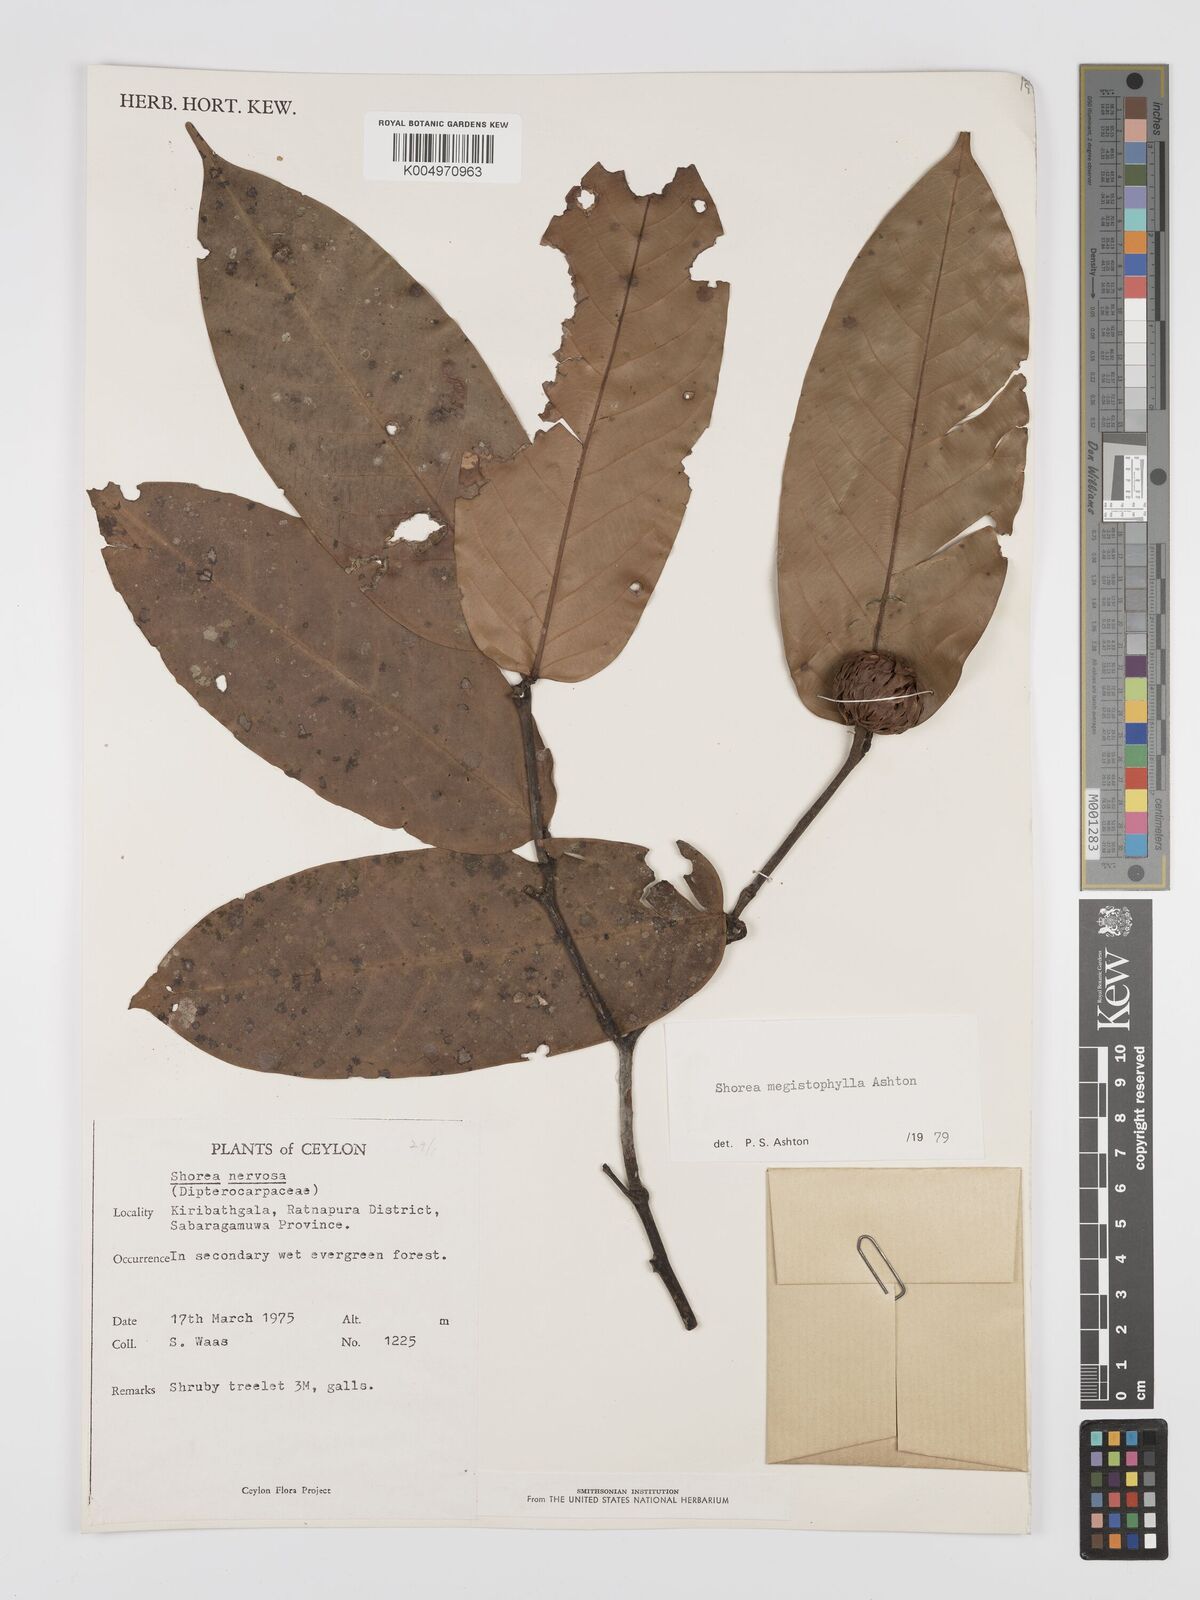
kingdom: Plantae
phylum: Tracheophyta
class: Magnoliopsida
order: Malvales
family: Dipterocarpaceae
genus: Doona
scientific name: Doona macrophylla
